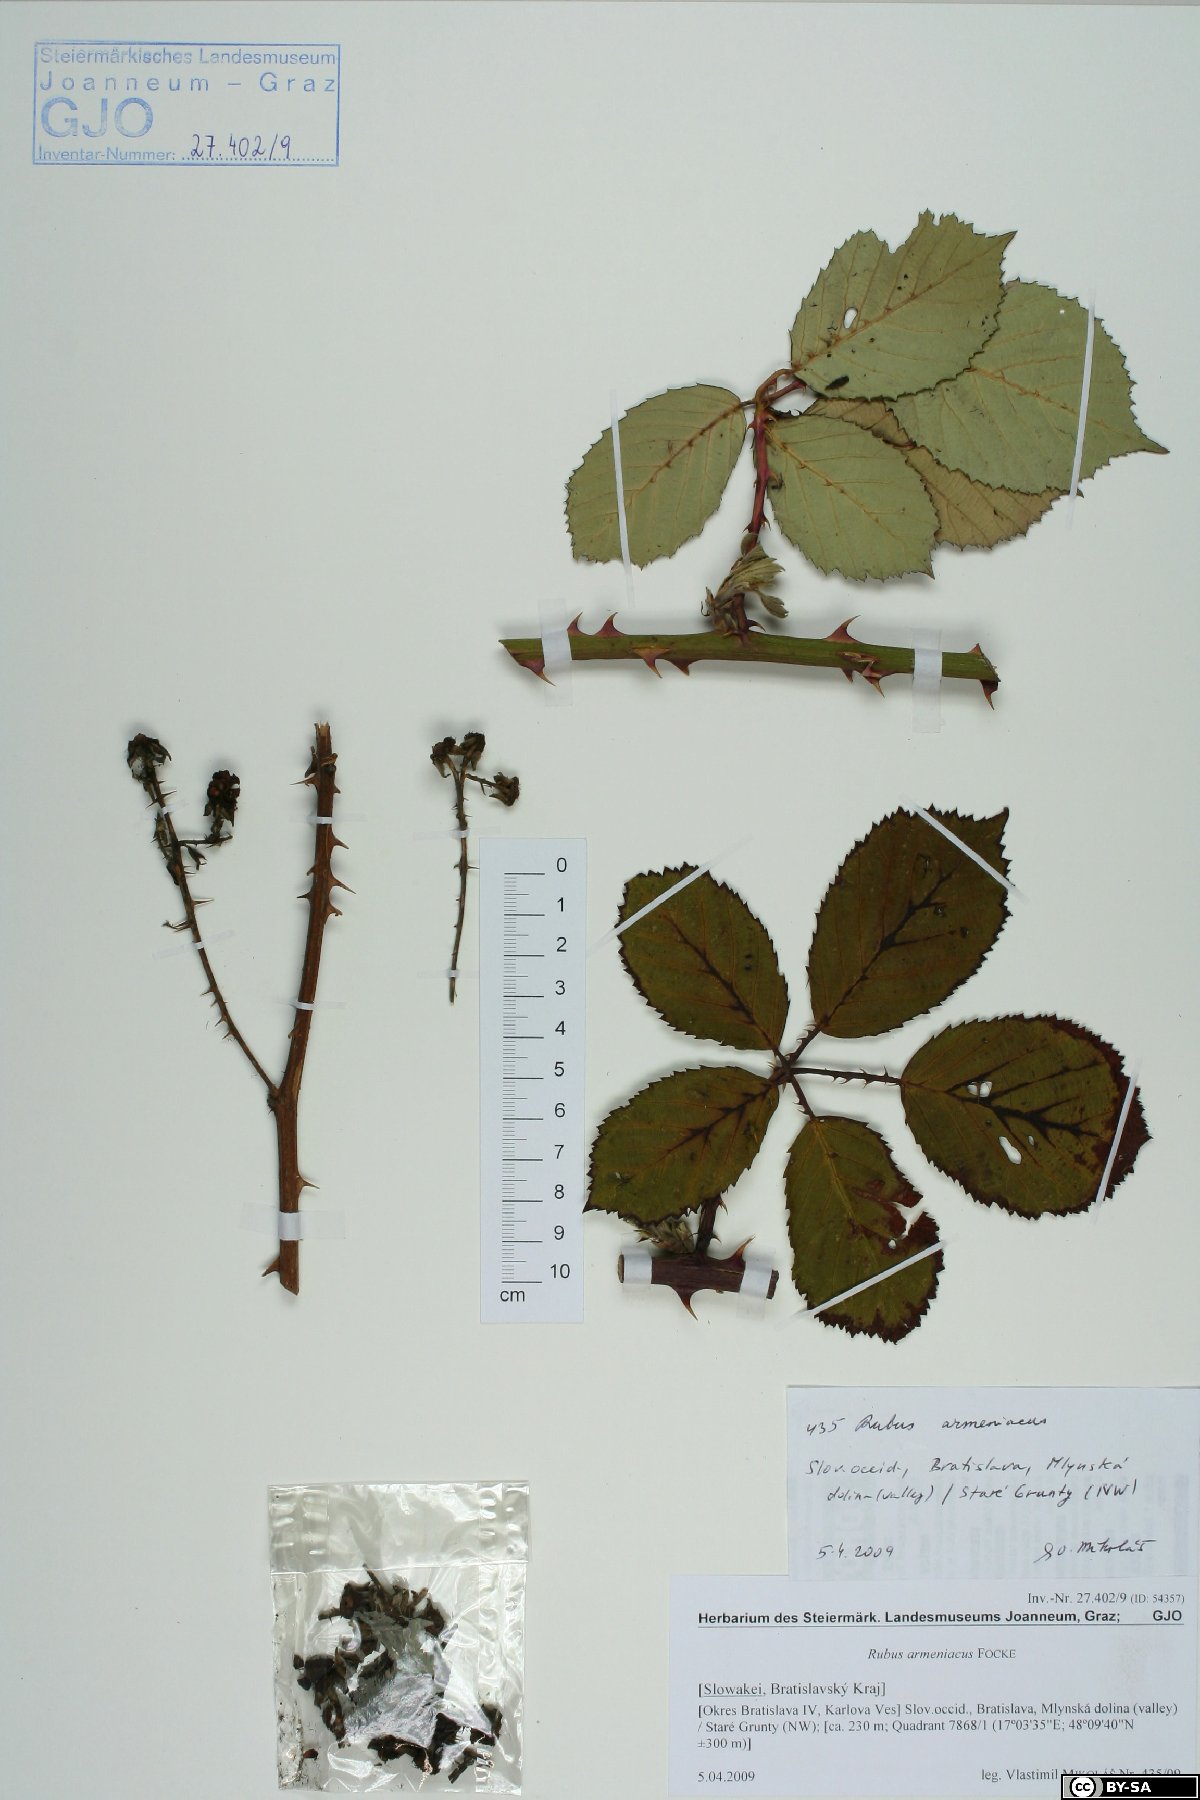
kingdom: Plantae
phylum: Tracheophyta
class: Magnoliopsida
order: Rosales
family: Rosaceae
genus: Rubus
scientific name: Rubus armeniacus
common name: Himalayan blackberry
